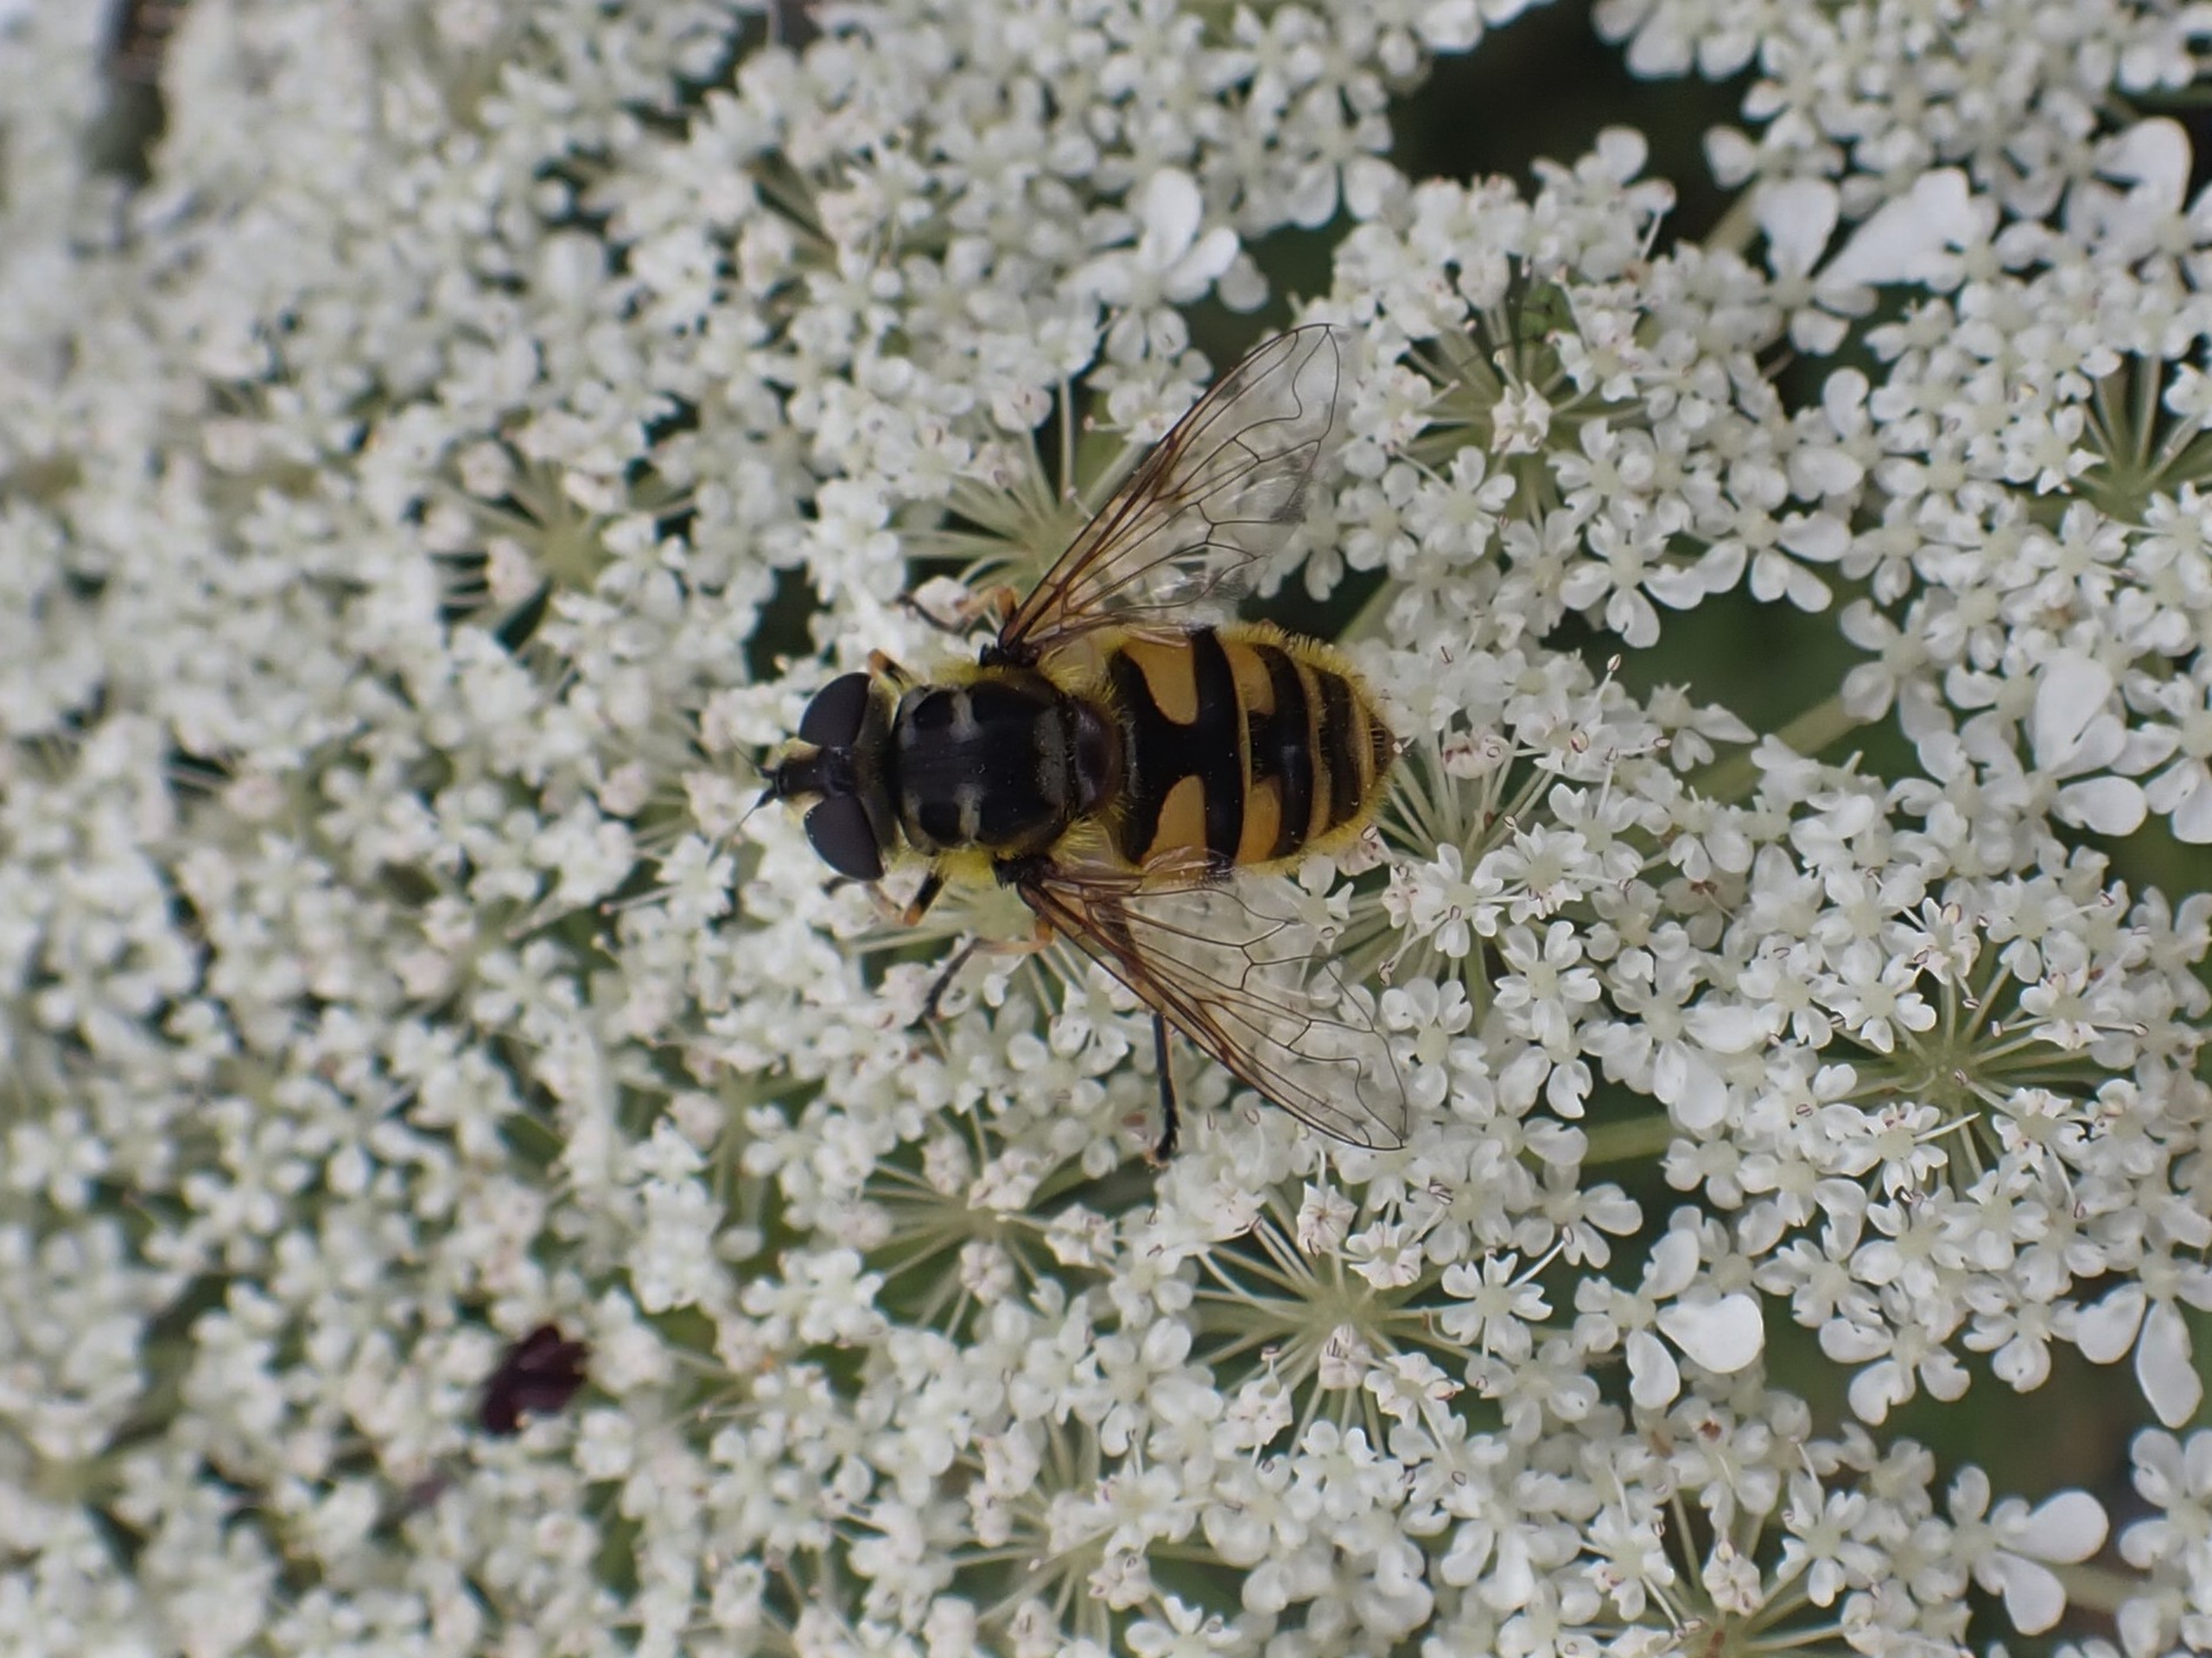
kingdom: Animalia
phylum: Arthropoda
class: Insecta
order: Diptera
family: Syrphidae
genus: Myathropa
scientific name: Myathropa florea
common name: Dødningehoved-svirreflue
